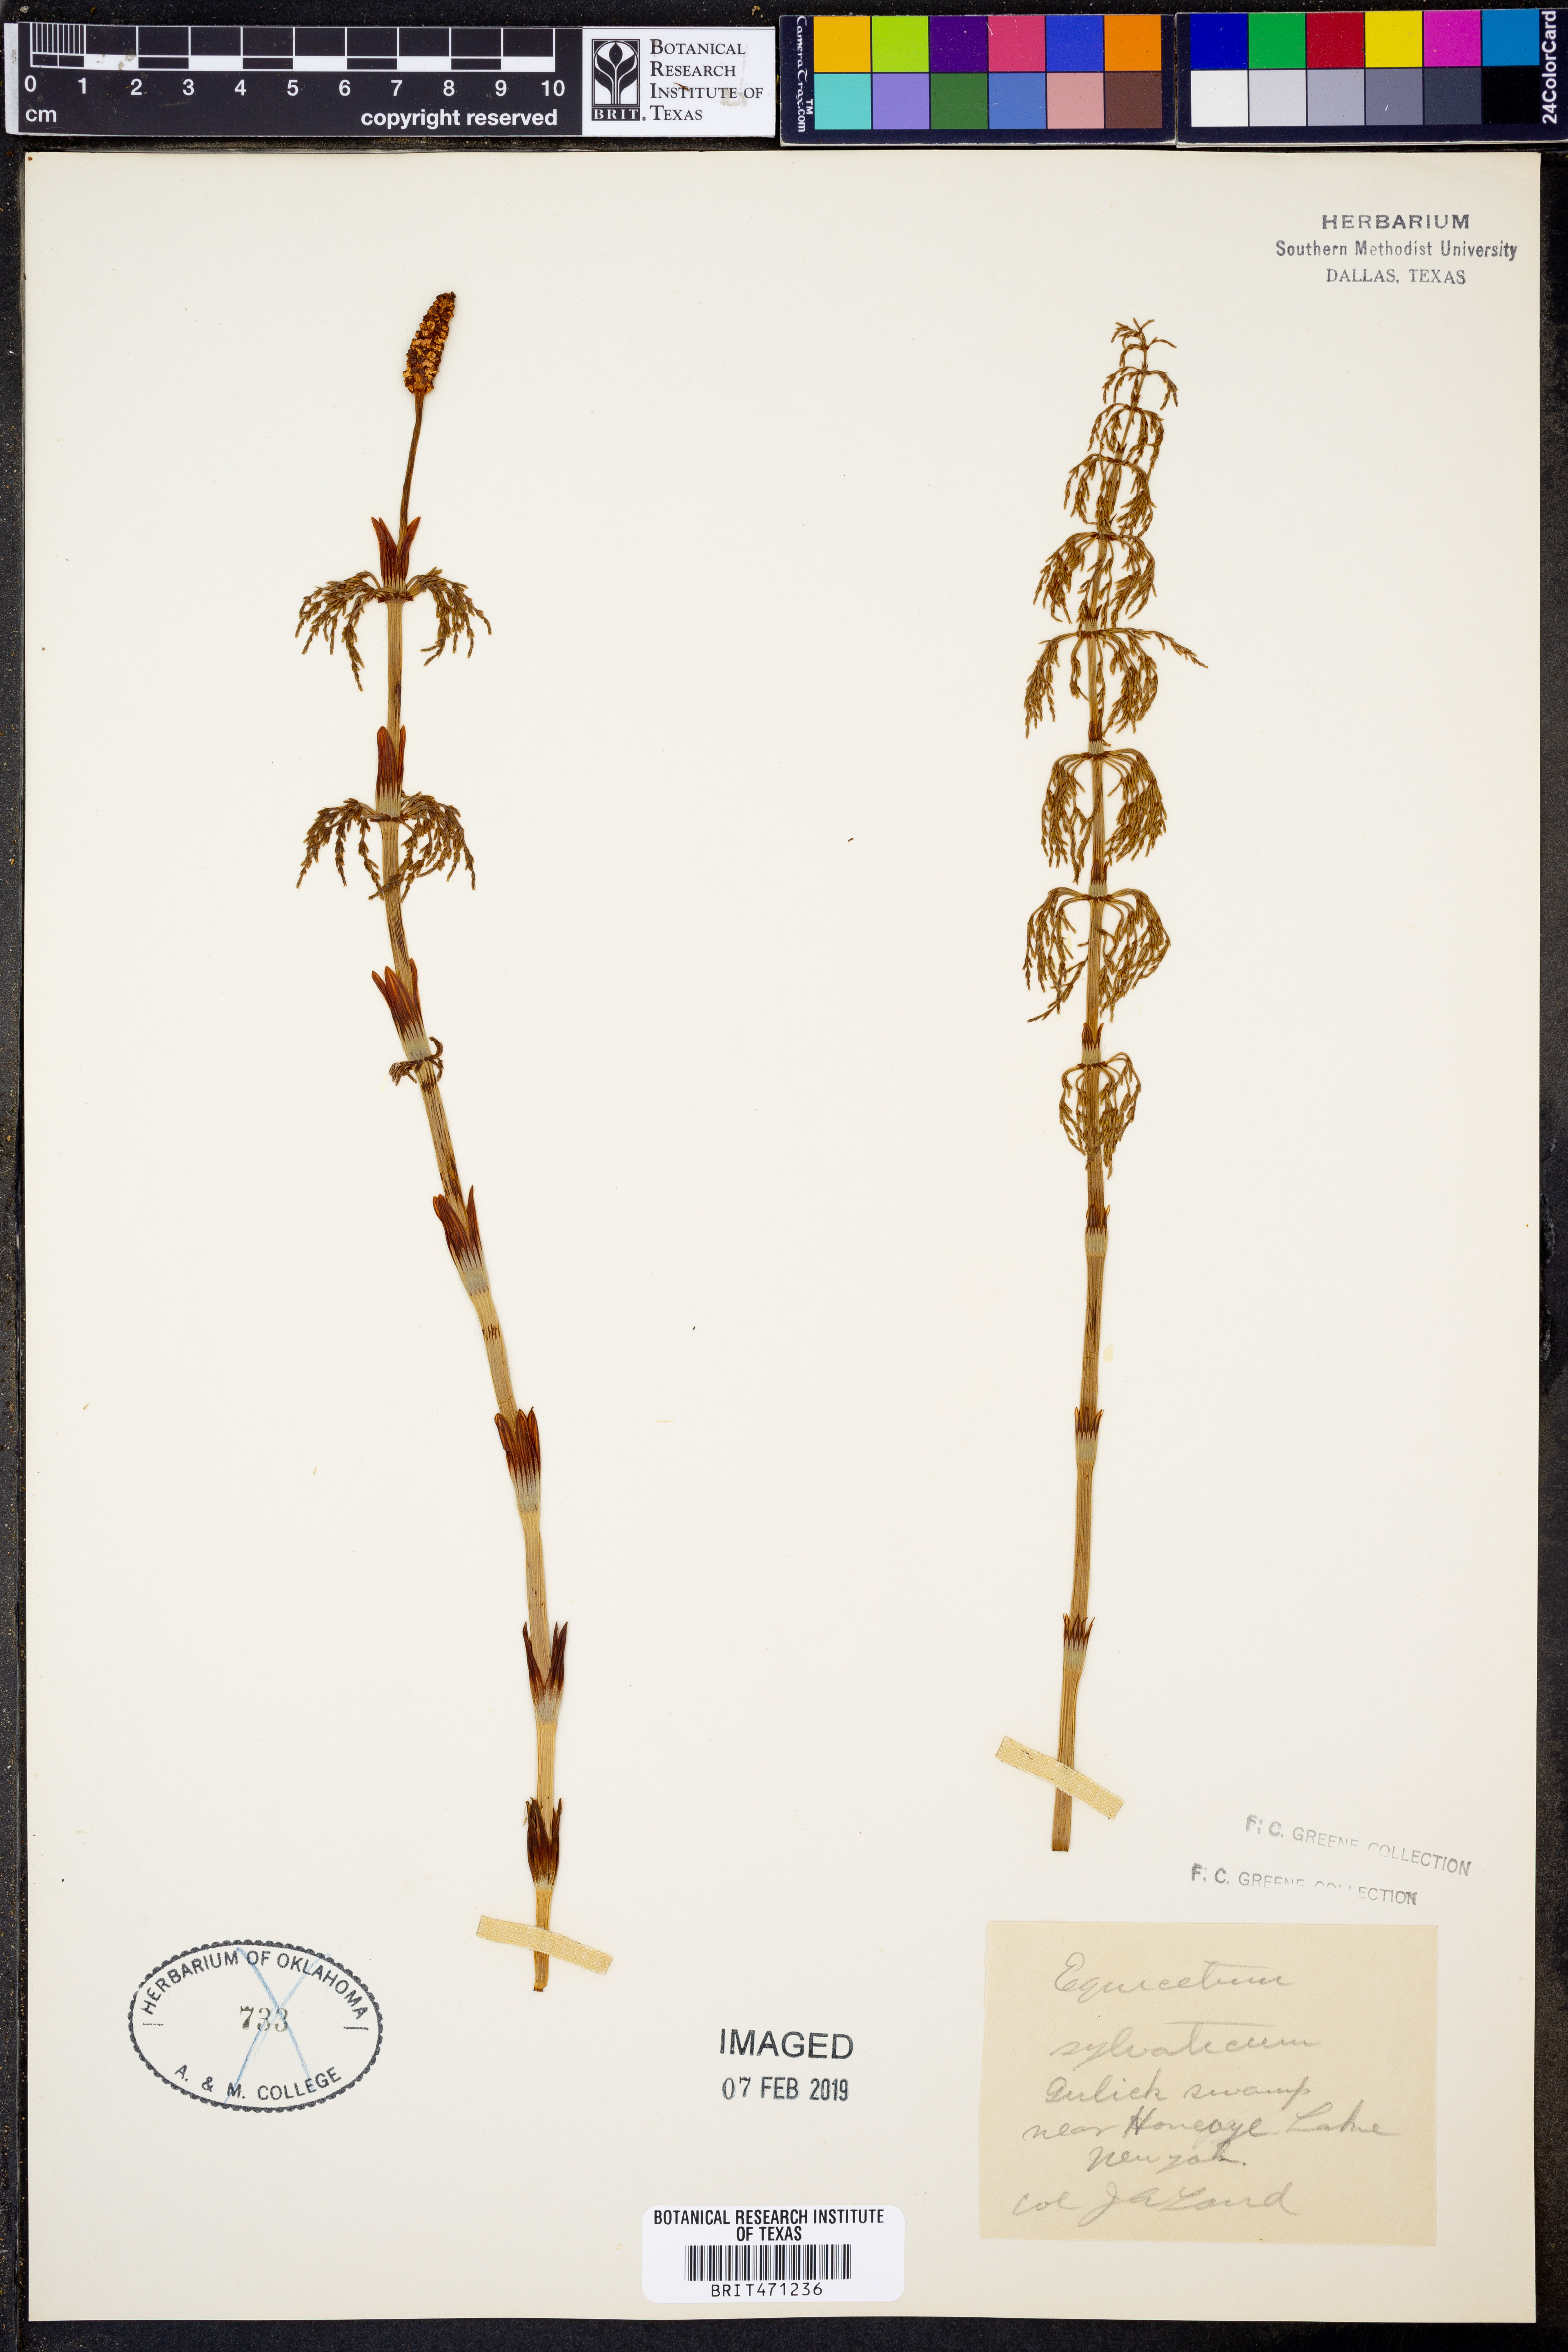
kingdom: Plantae
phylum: Tracheophyta
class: Polypodiopsida
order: Equisetales
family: Equisetaceae
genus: Equisetum
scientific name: Equisetum sylvaticum
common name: Wood horsetail
